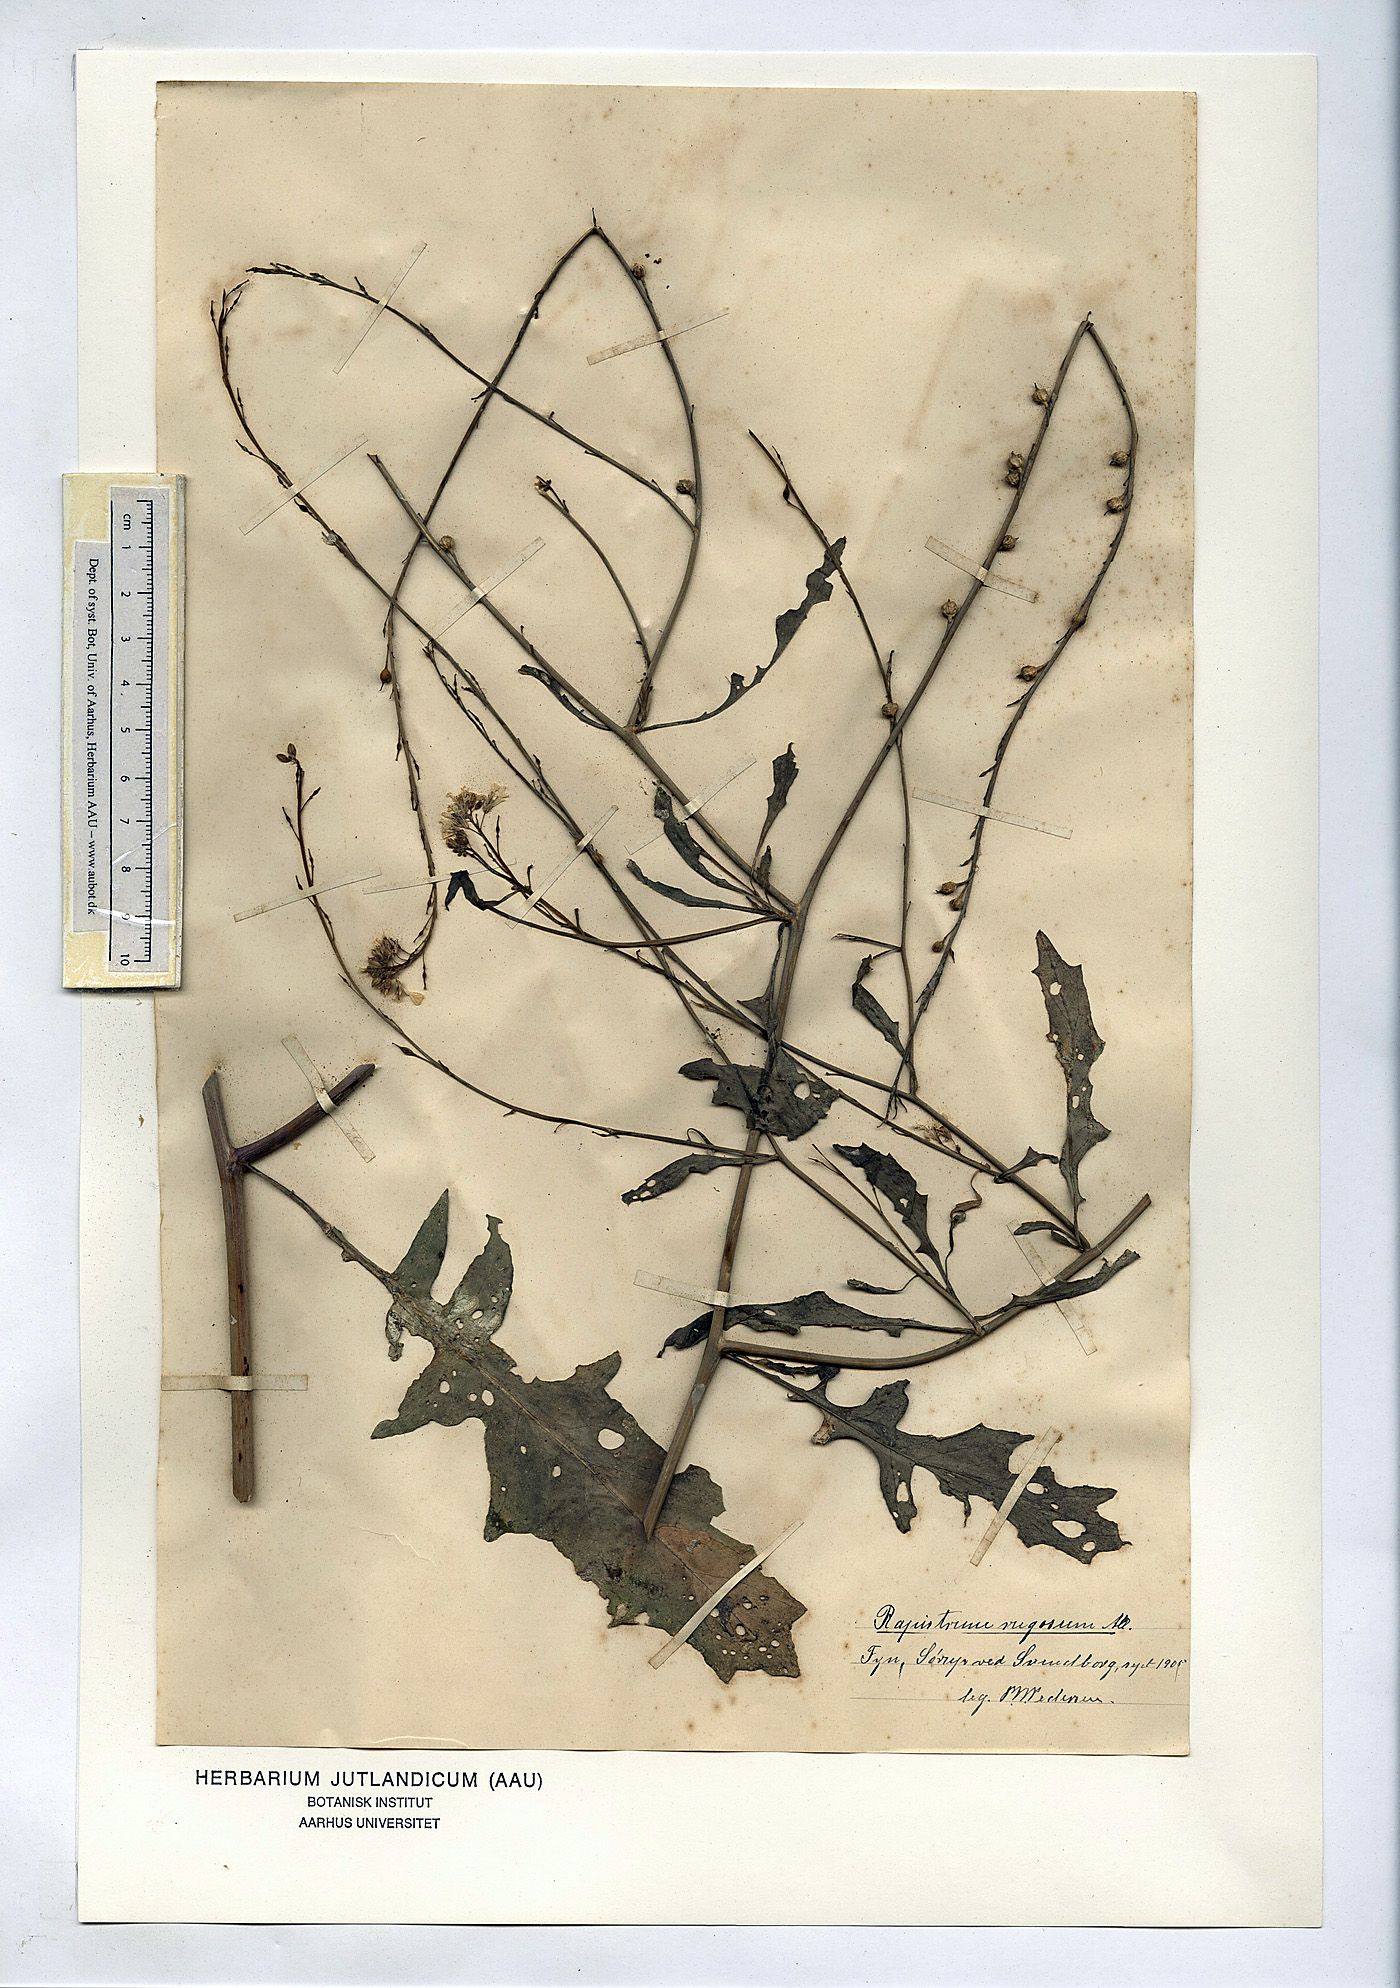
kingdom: Plantae
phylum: Tracheophyta
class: Magnoliopsida
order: Brassicales
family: Brassicaceae
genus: Rapistrum
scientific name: Rapistrum rugosum
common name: Annual bastardcabbage
